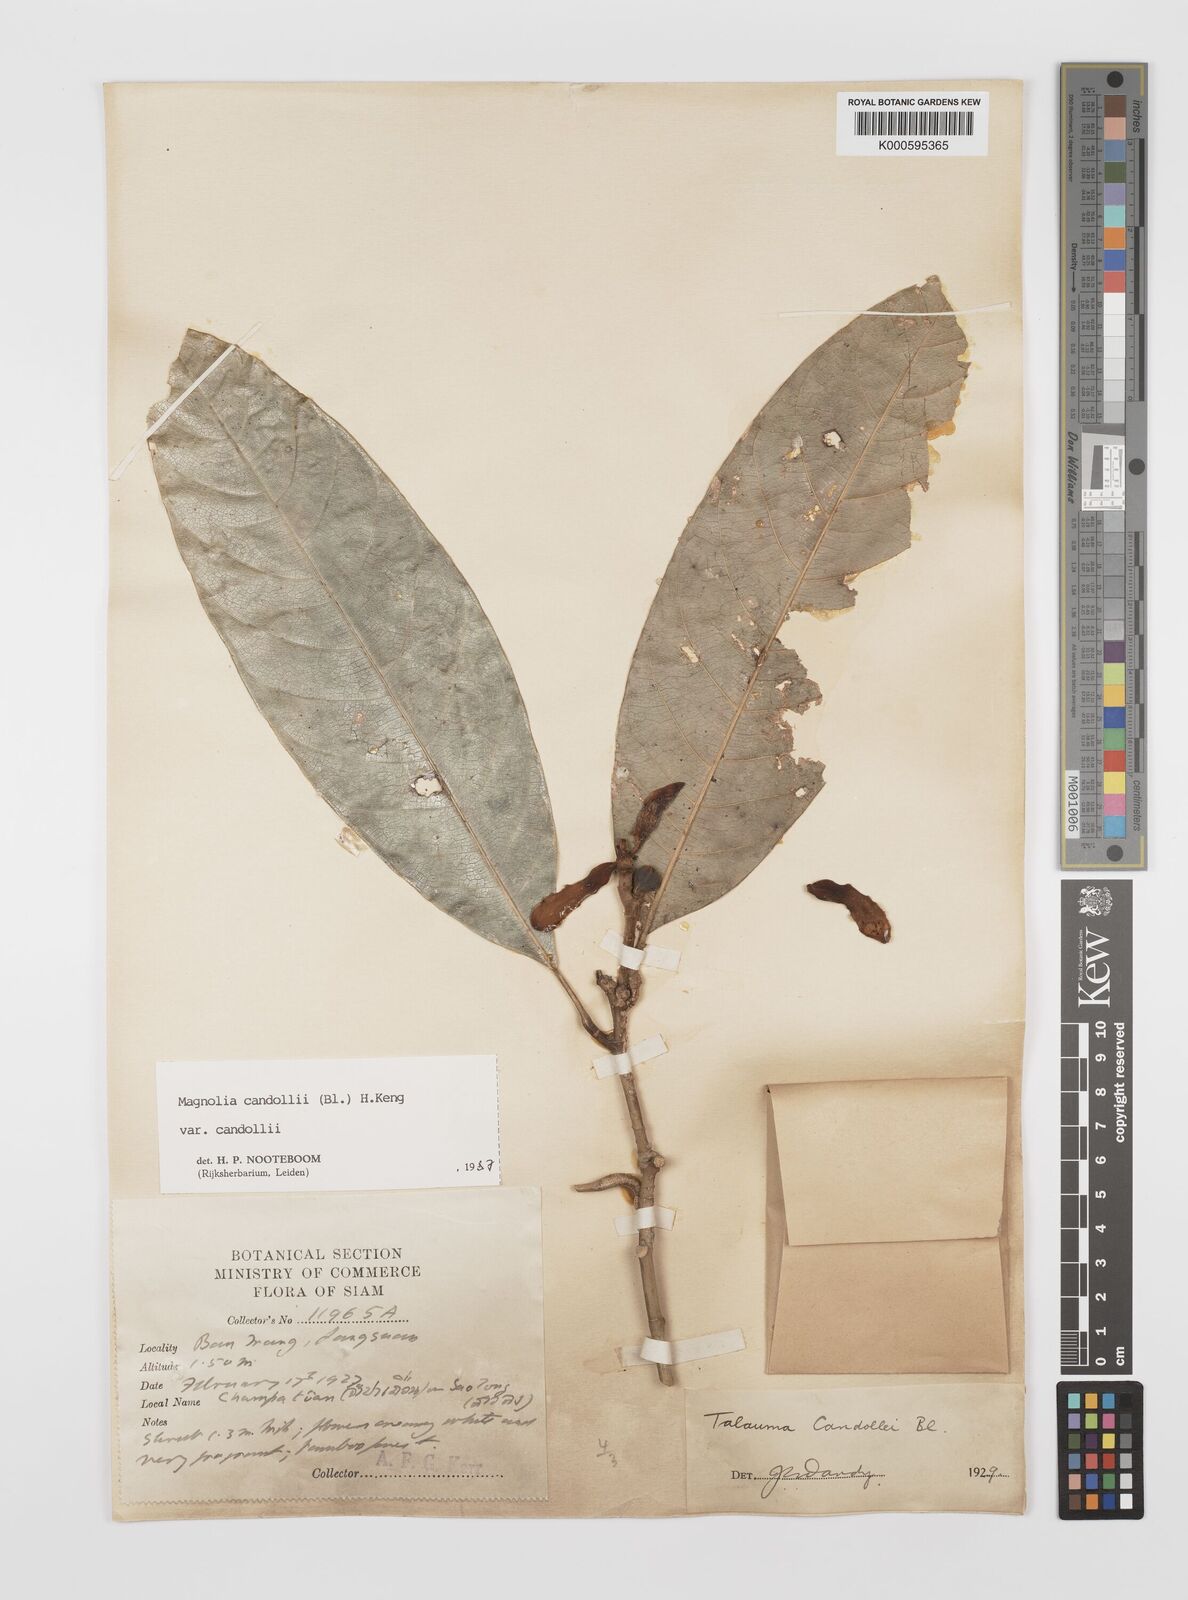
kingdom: Plantae
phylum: Tracheophyta
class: Magnoliopsida
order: Magnoliales
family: Magnoliaceae
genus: Magnolia
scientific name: Magnolia liliifera
